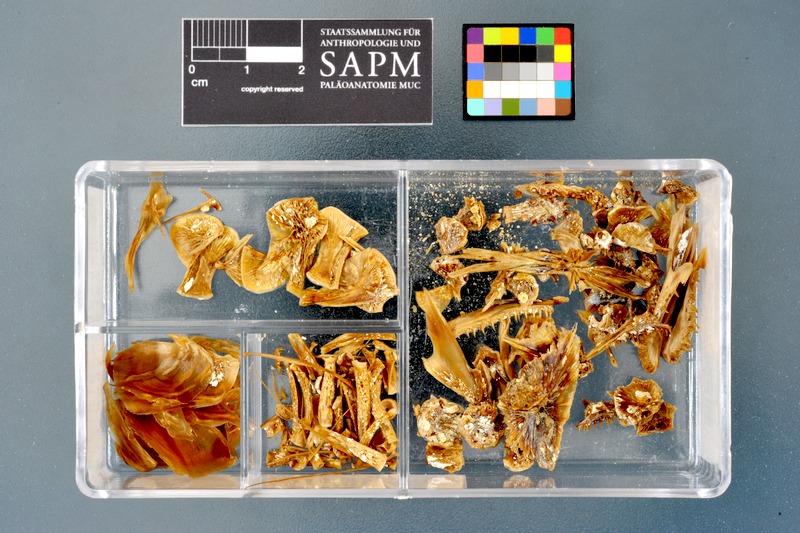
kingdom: Animalia
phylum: Chordata
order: Salmoniformes
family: Salmonidae
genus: Oncorhynchus
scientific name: Oncorhynchus mykiss
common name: Rainbow trout
